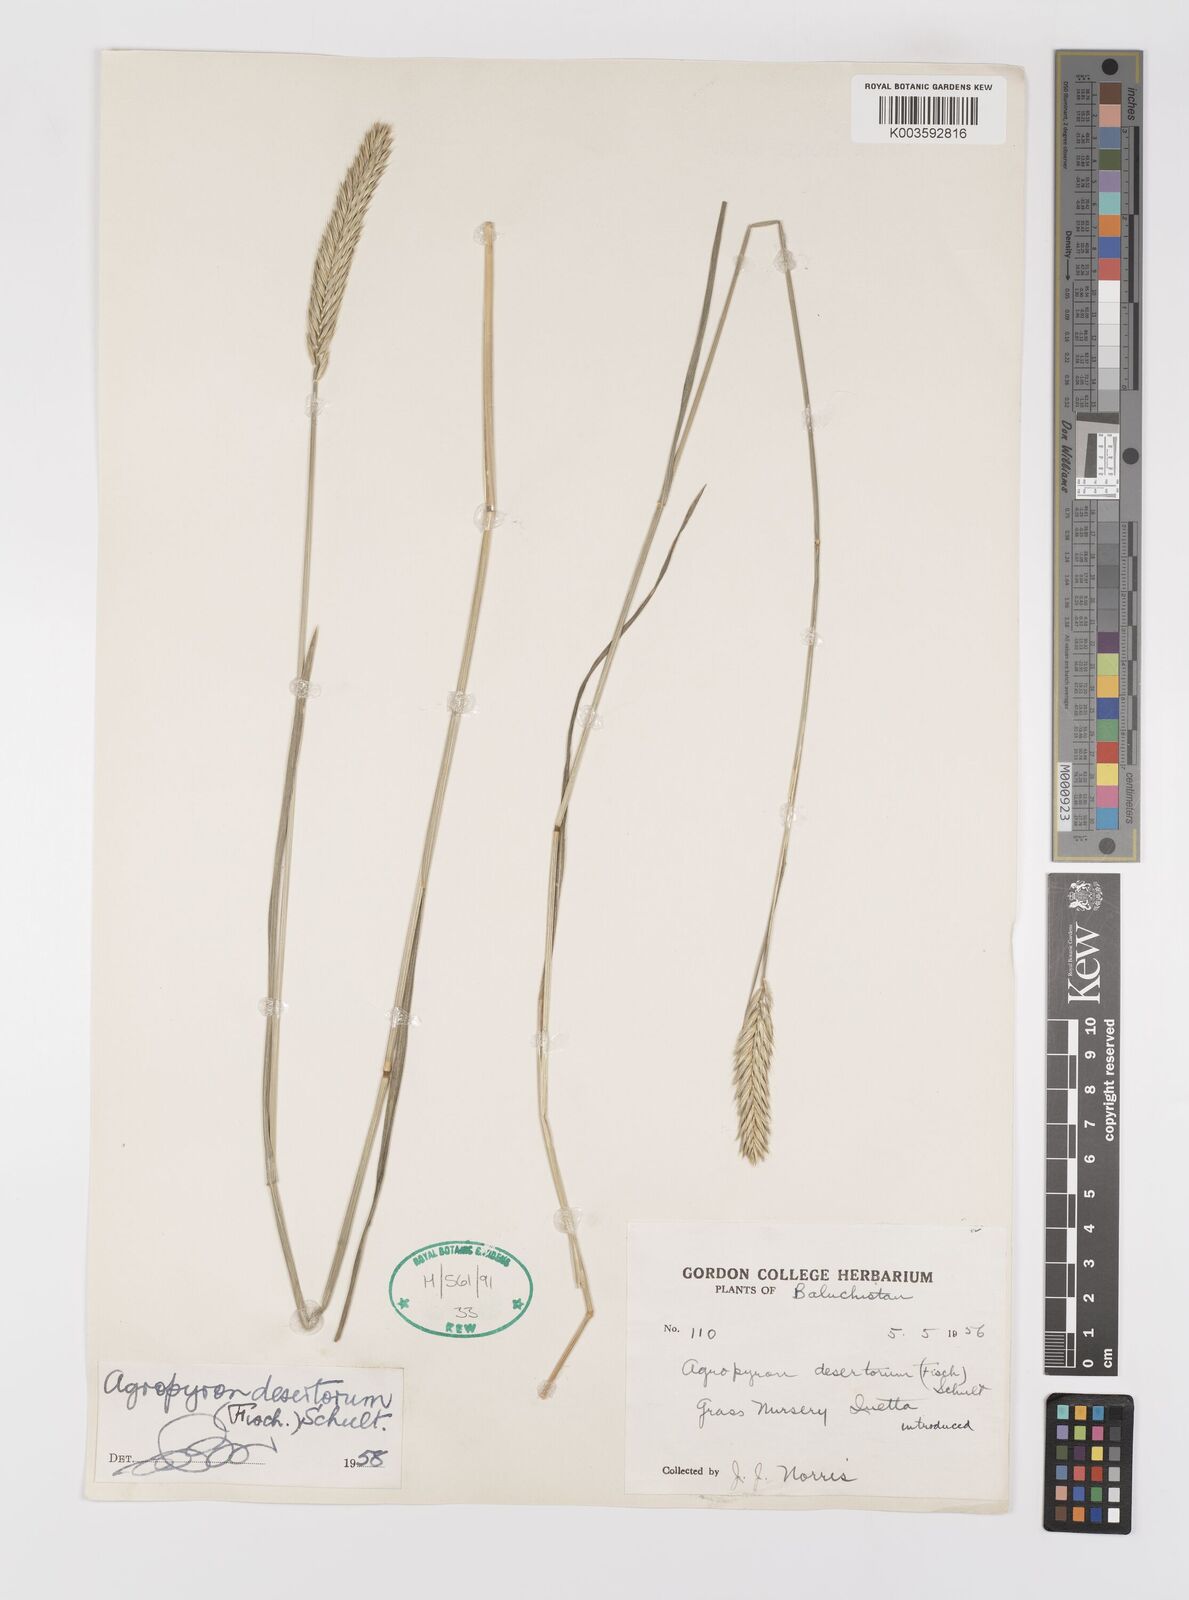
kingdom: Plantae
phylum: Tracheophyta
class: Liliopsida
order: Poales
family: Poaceae
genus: Agropyron
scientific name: Agropyron desertorum
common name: Desert wheatgrass
